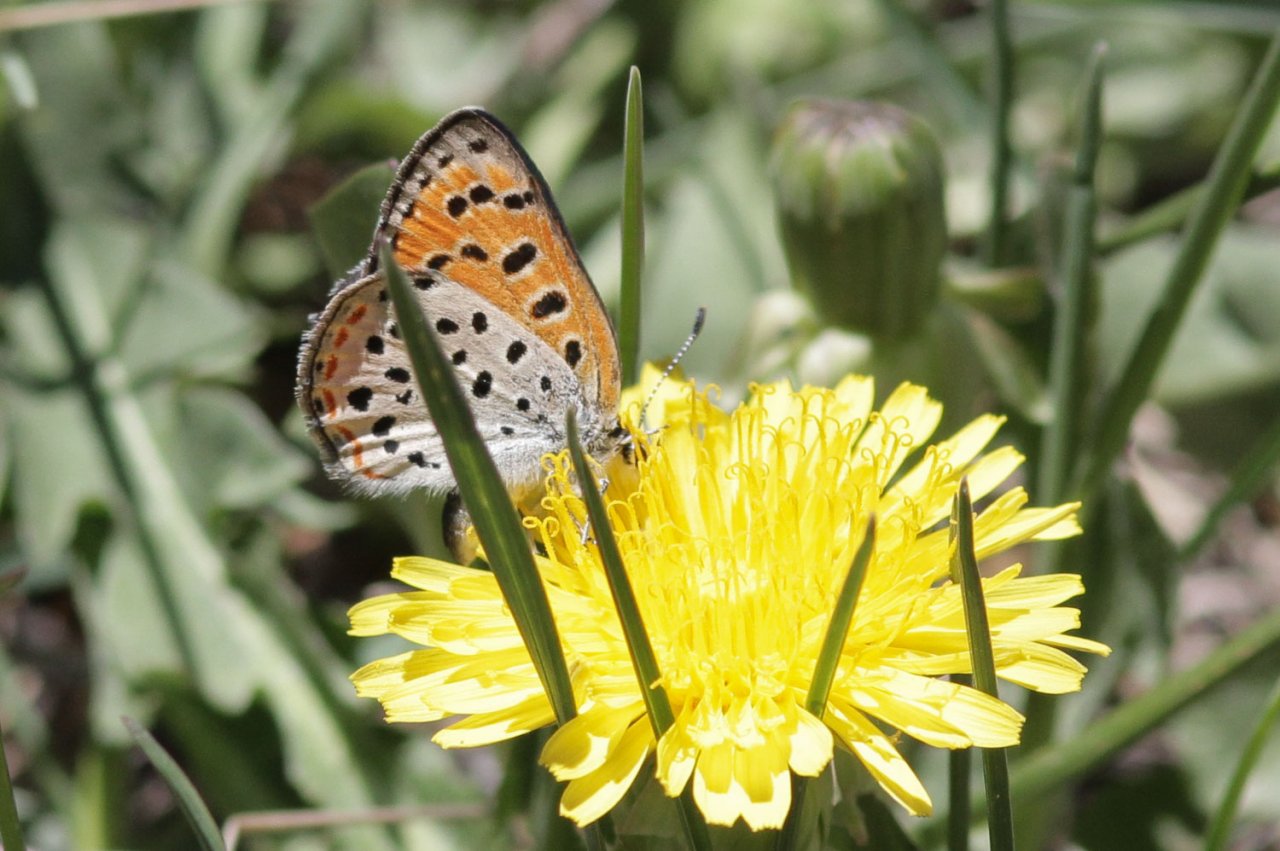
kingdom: Animalia
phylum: Arthropoda
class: Insecta
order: Lepidoptera
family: Lycaenidae
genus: Lycaena
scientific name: Lycaena cupreus
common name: Lustrous Copper
